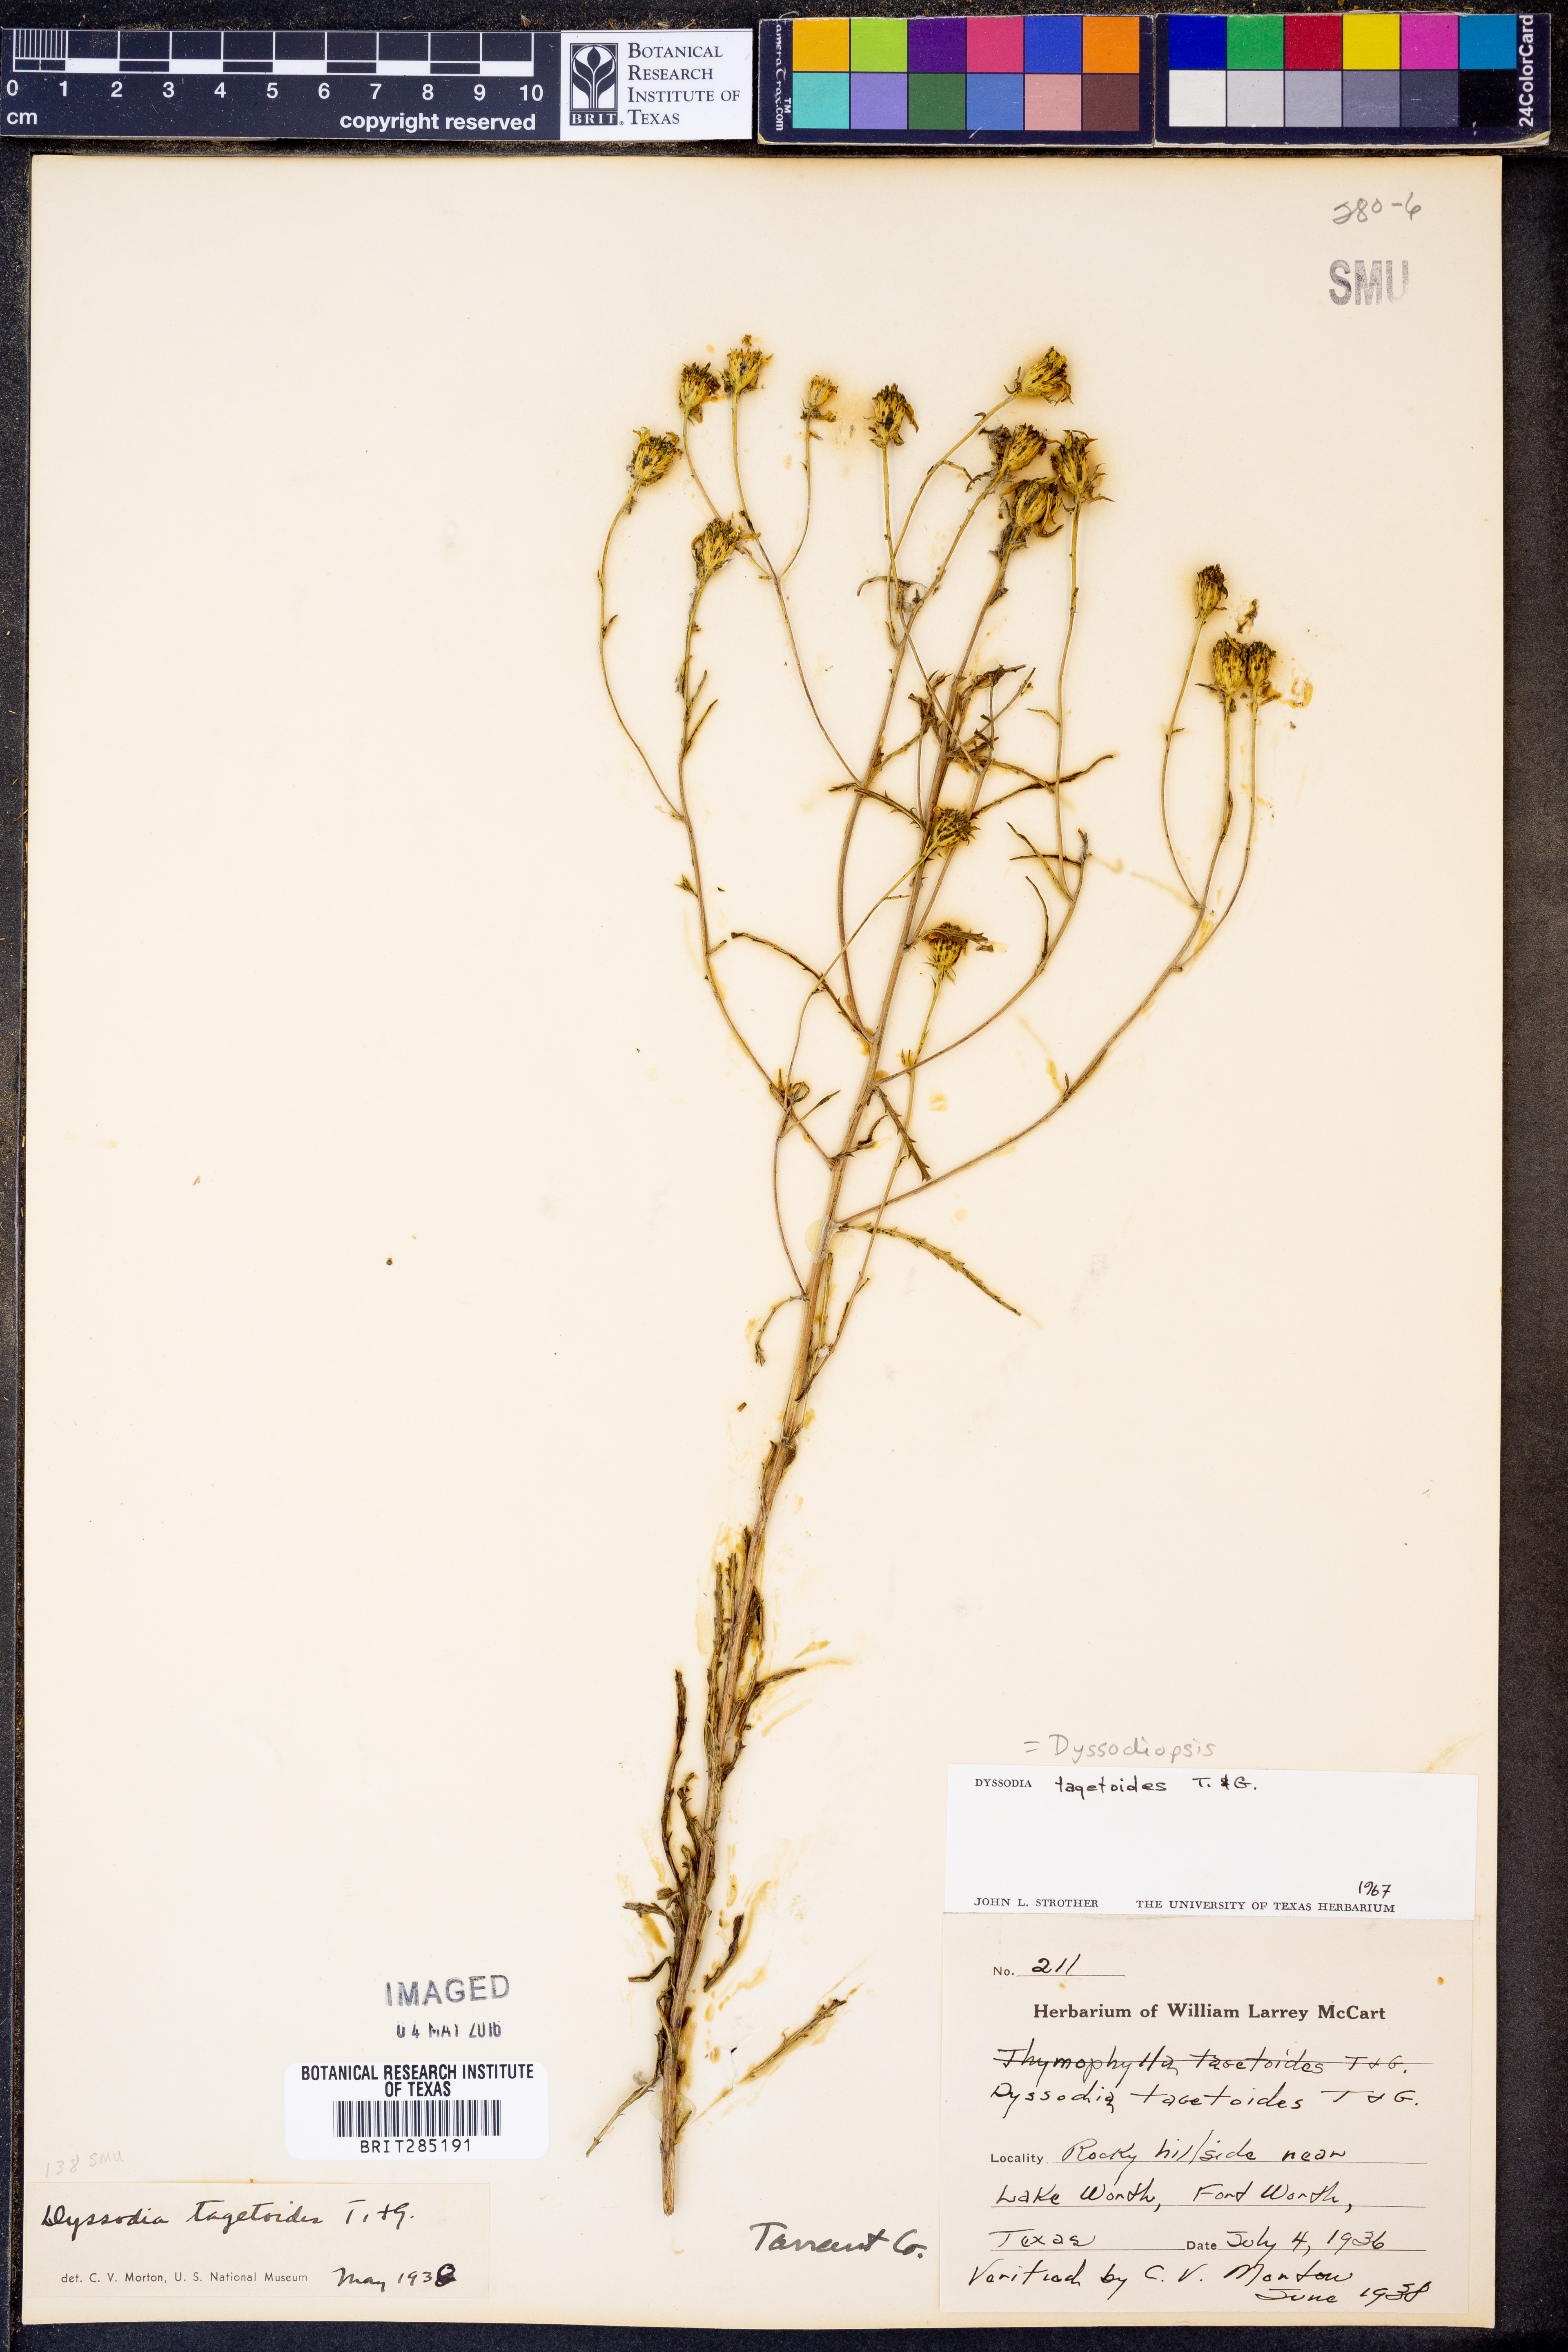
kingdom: Plantae
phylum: Tracheophyta
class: Magnoliopsida
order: Asterales
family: Asteraceae
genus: Dysodiopsis
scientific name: Dysodiopsis tagetoides
